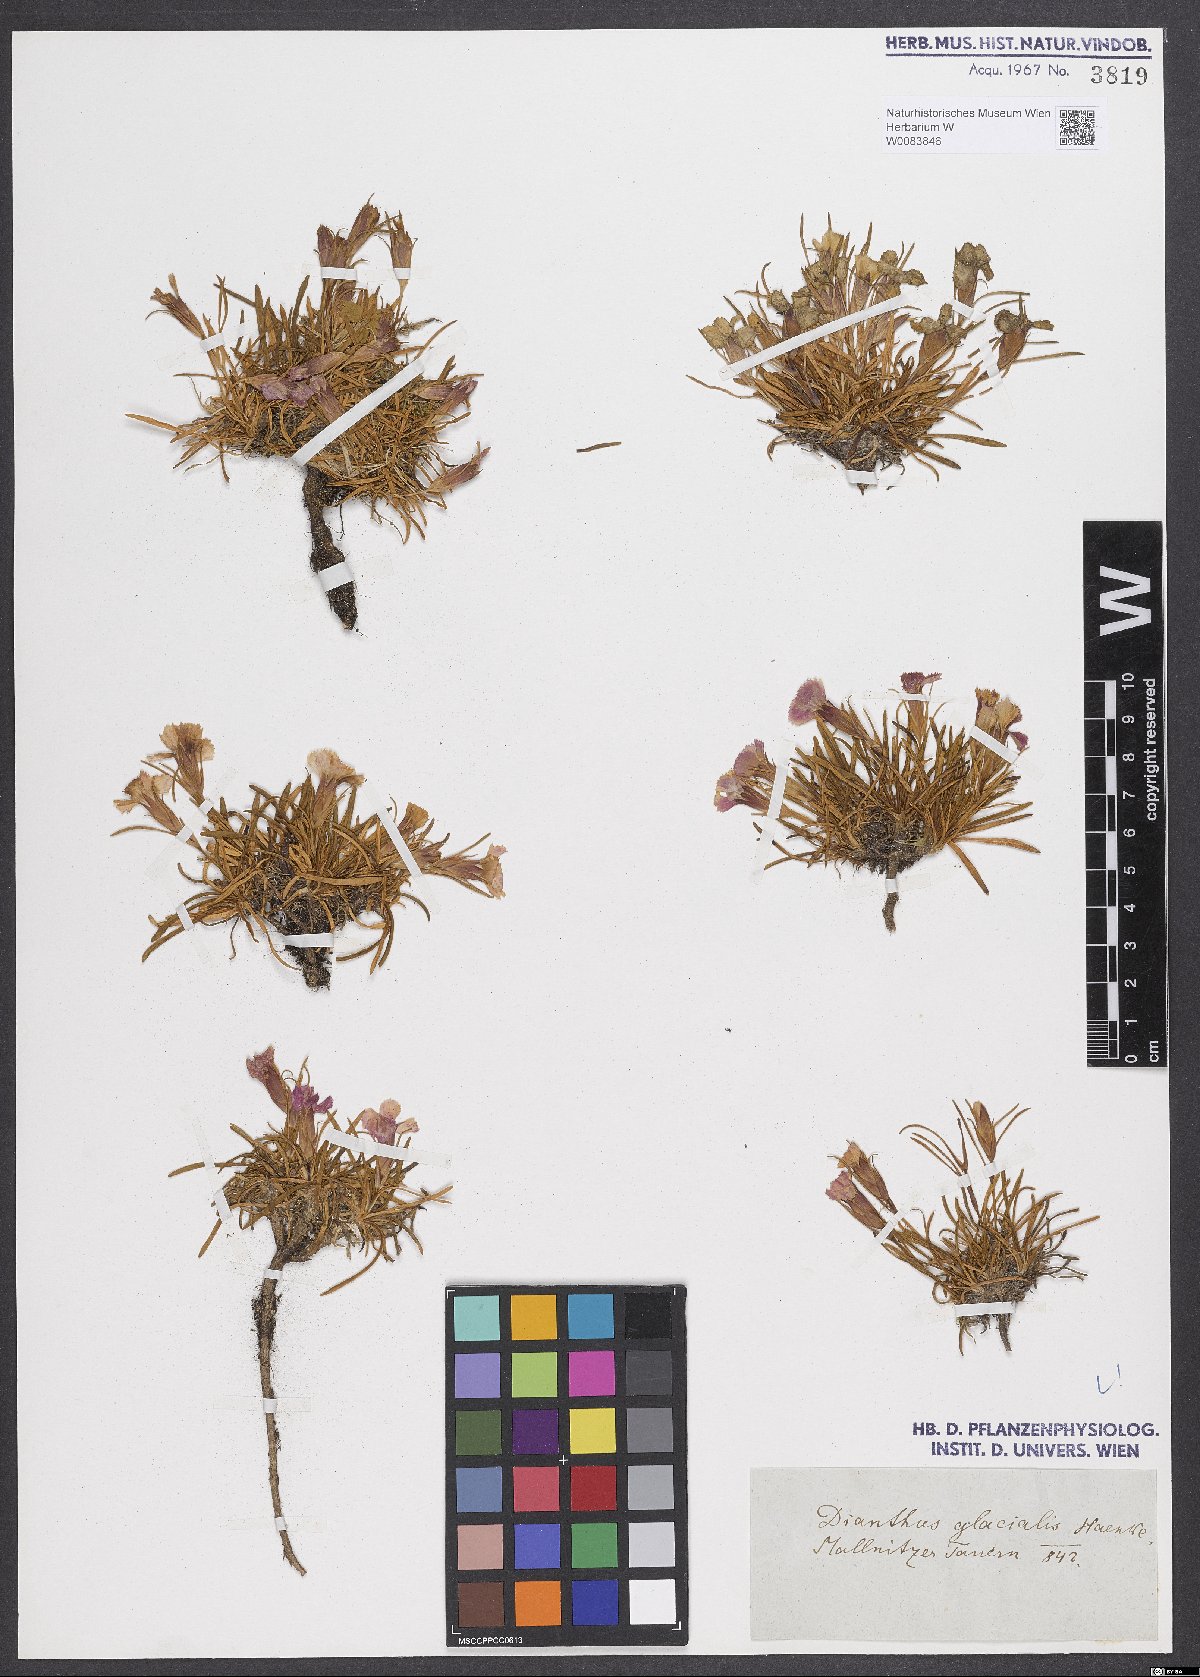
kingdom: Plantae
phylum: Tracheophyta
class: Magnoliopsida
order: Caryophyllales
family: Caryophyllaceae
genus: Dianthus
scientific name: Dianthus glacialis
